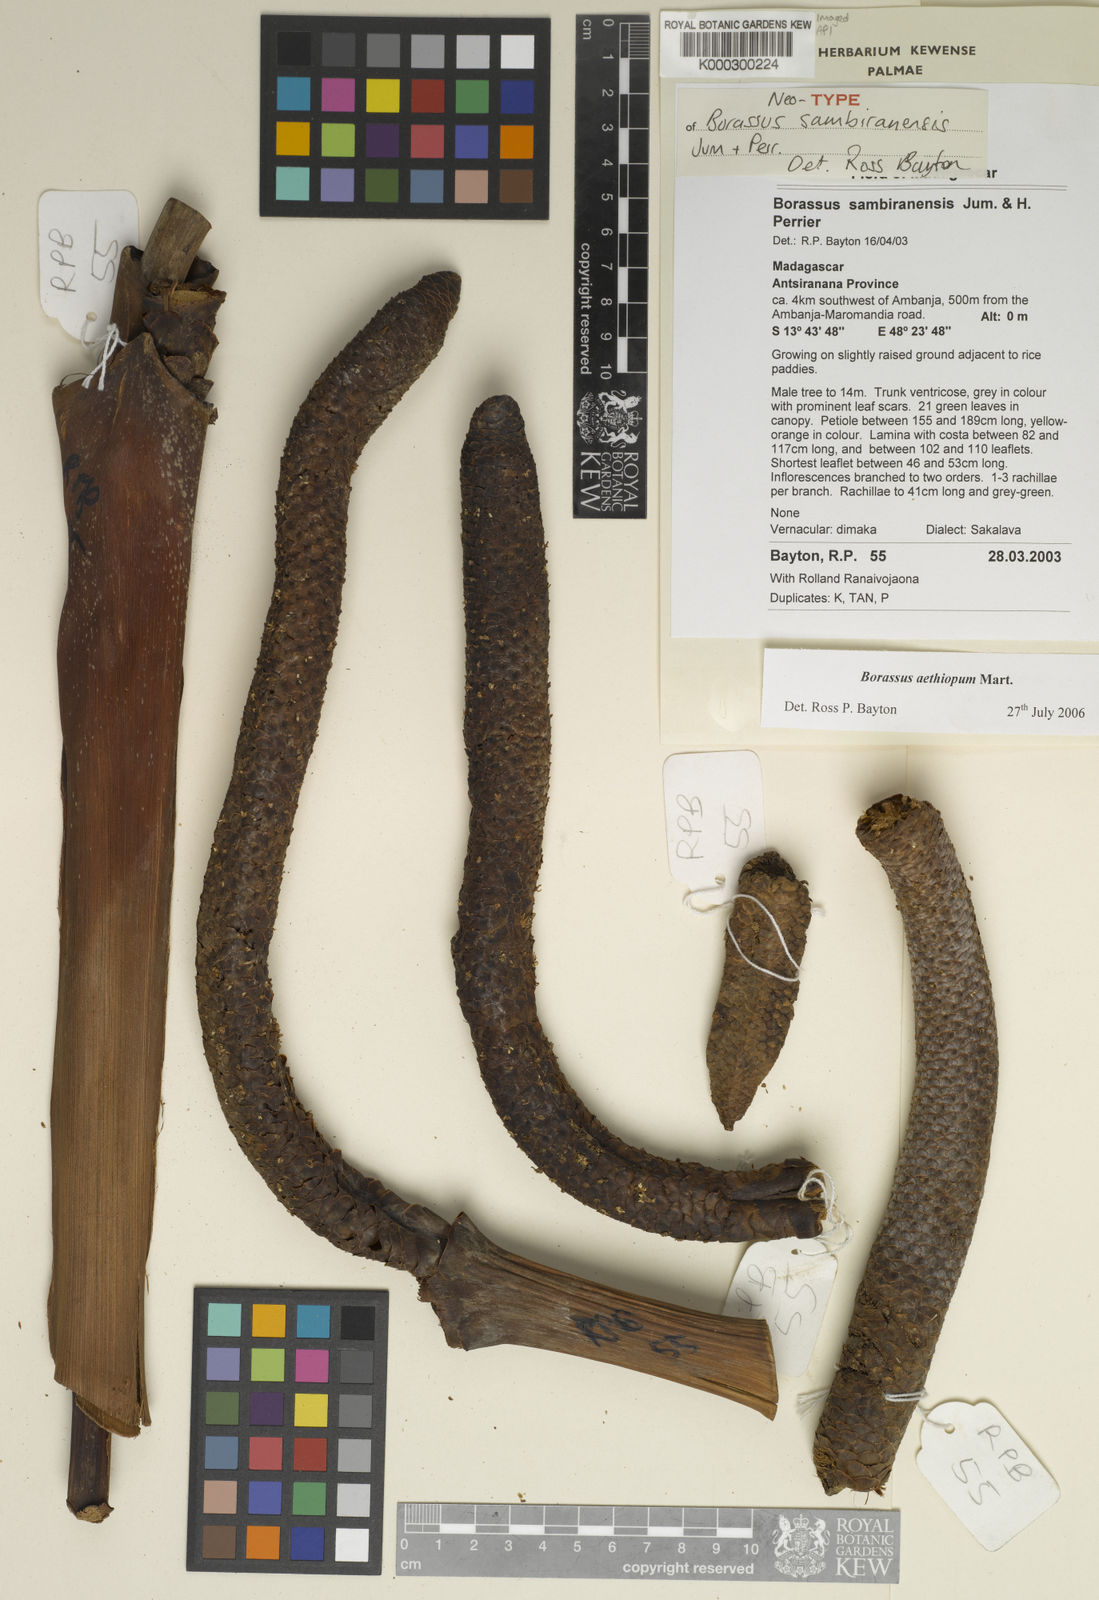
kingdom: Plantae
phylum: Tracheophyta
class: Liliopsida
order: Arecales
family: Arecaceae
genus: Borassus
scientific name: Borassus aethiopum
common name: Elephant palm
